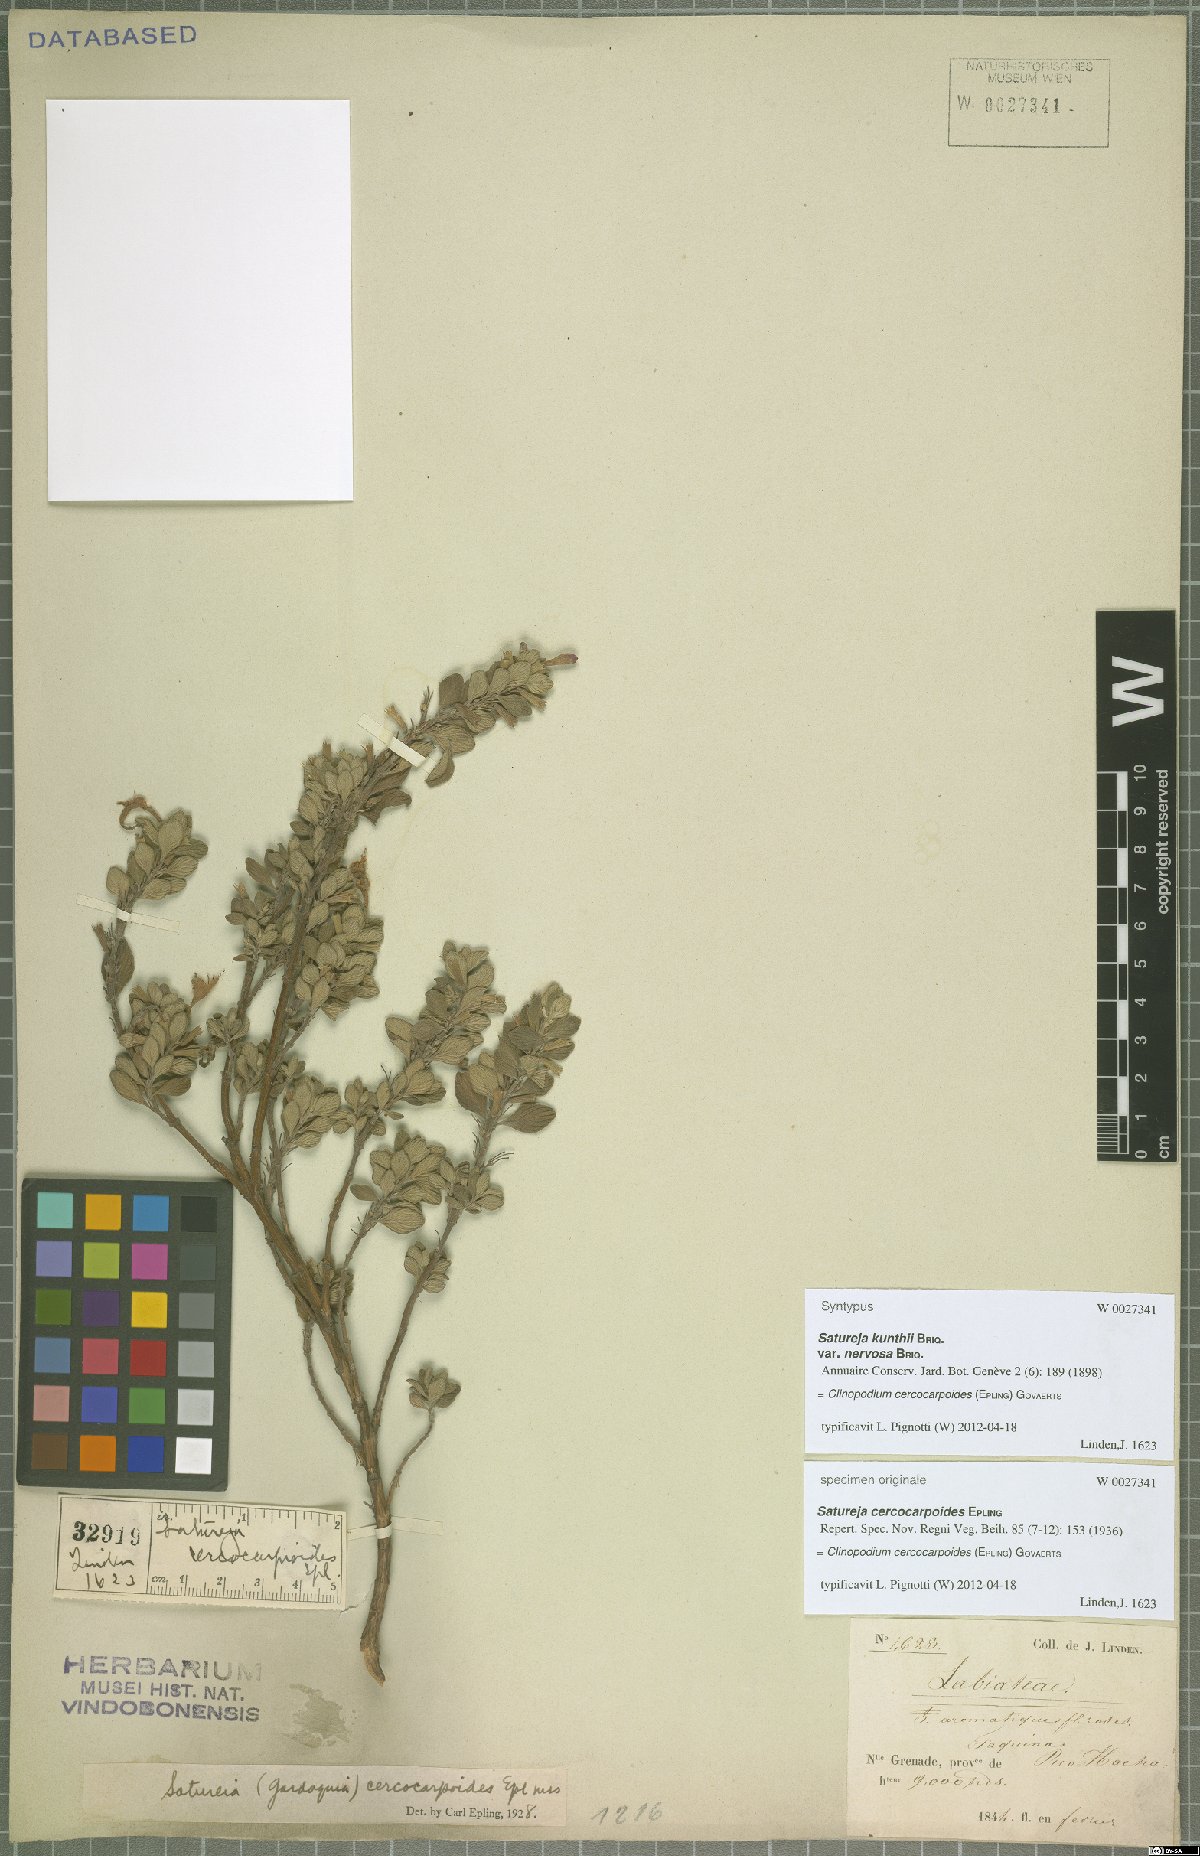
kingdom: Plantae
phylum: Tracheophyta
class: Magnoliopsida
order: Lamiales
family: Lamiaceae
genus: Clinopodium
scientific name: Clinopodium cercocarpoides
